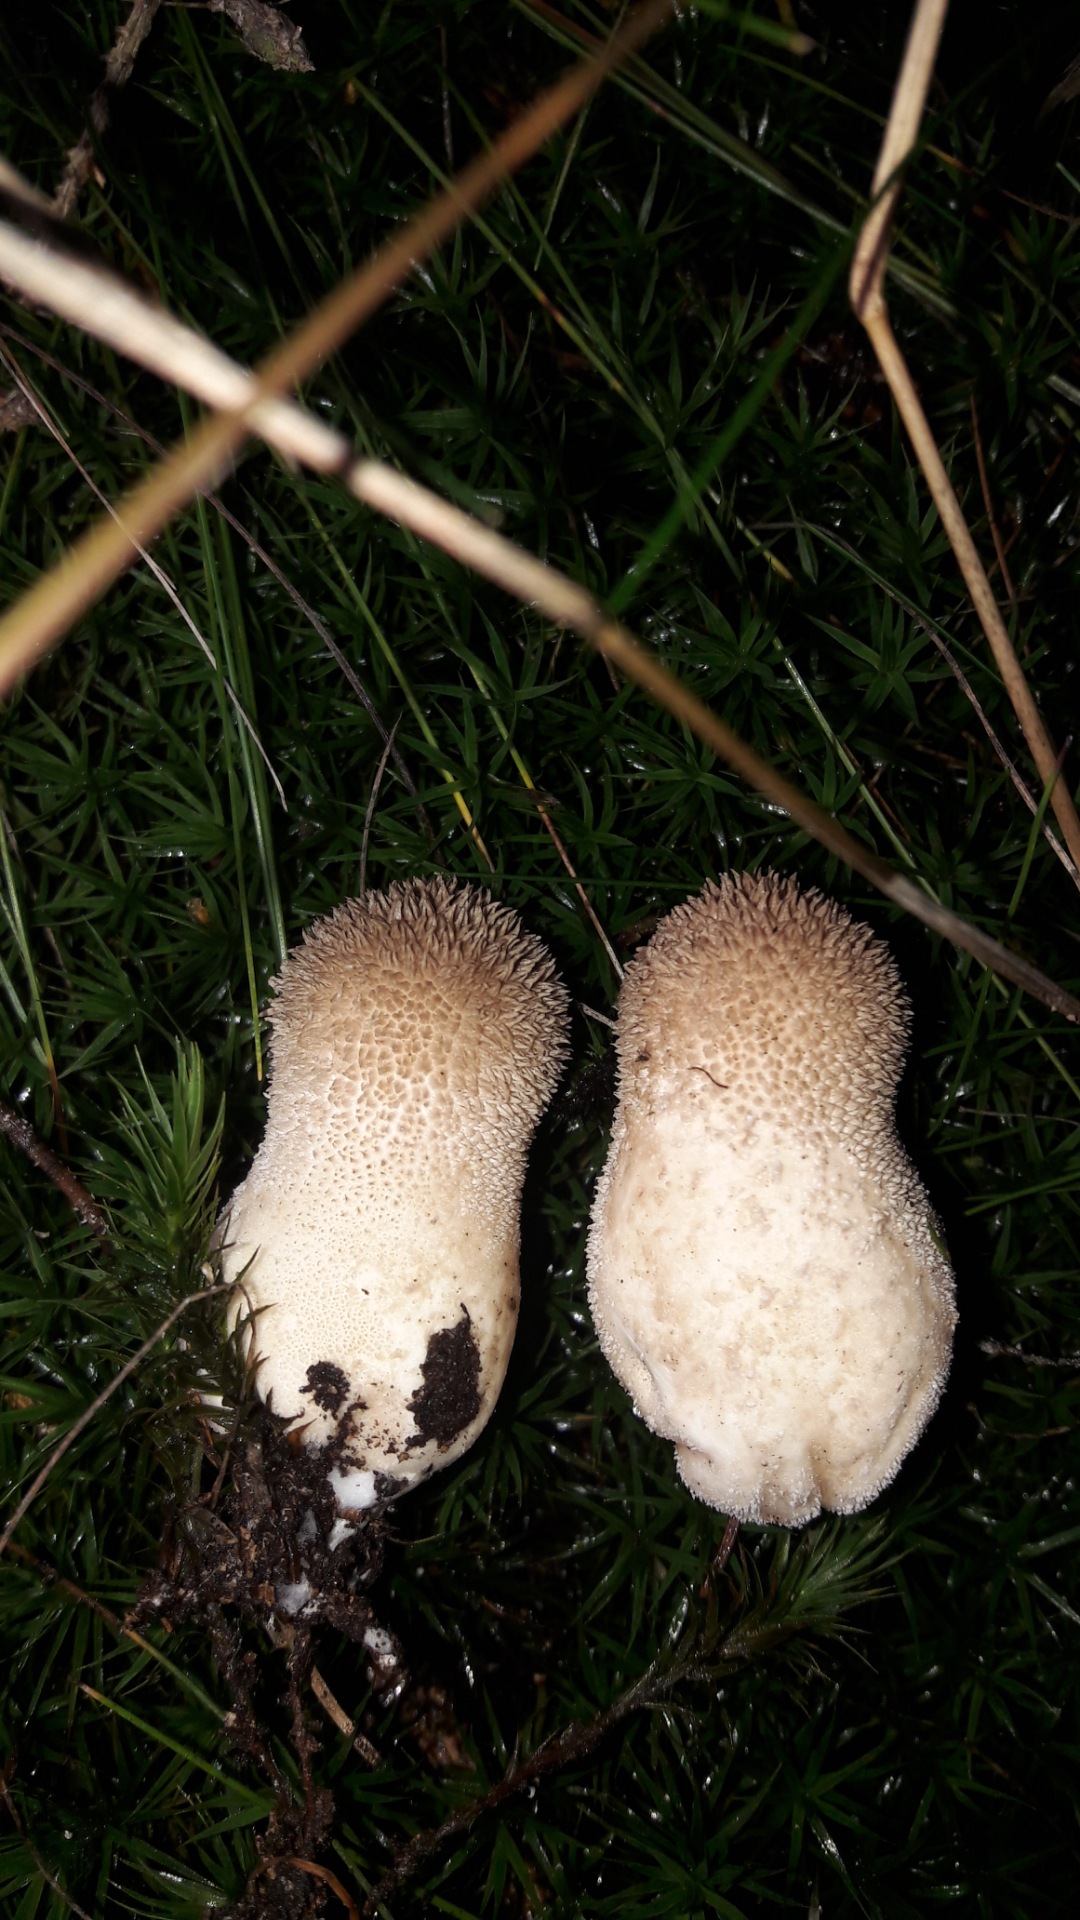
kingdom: Fungi
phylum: Basidiomycota
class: Agaricomycetes
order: Agaricales
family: Agaricaceae
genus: Lycoperdon
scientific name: Lycoperdon
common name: støvbold
